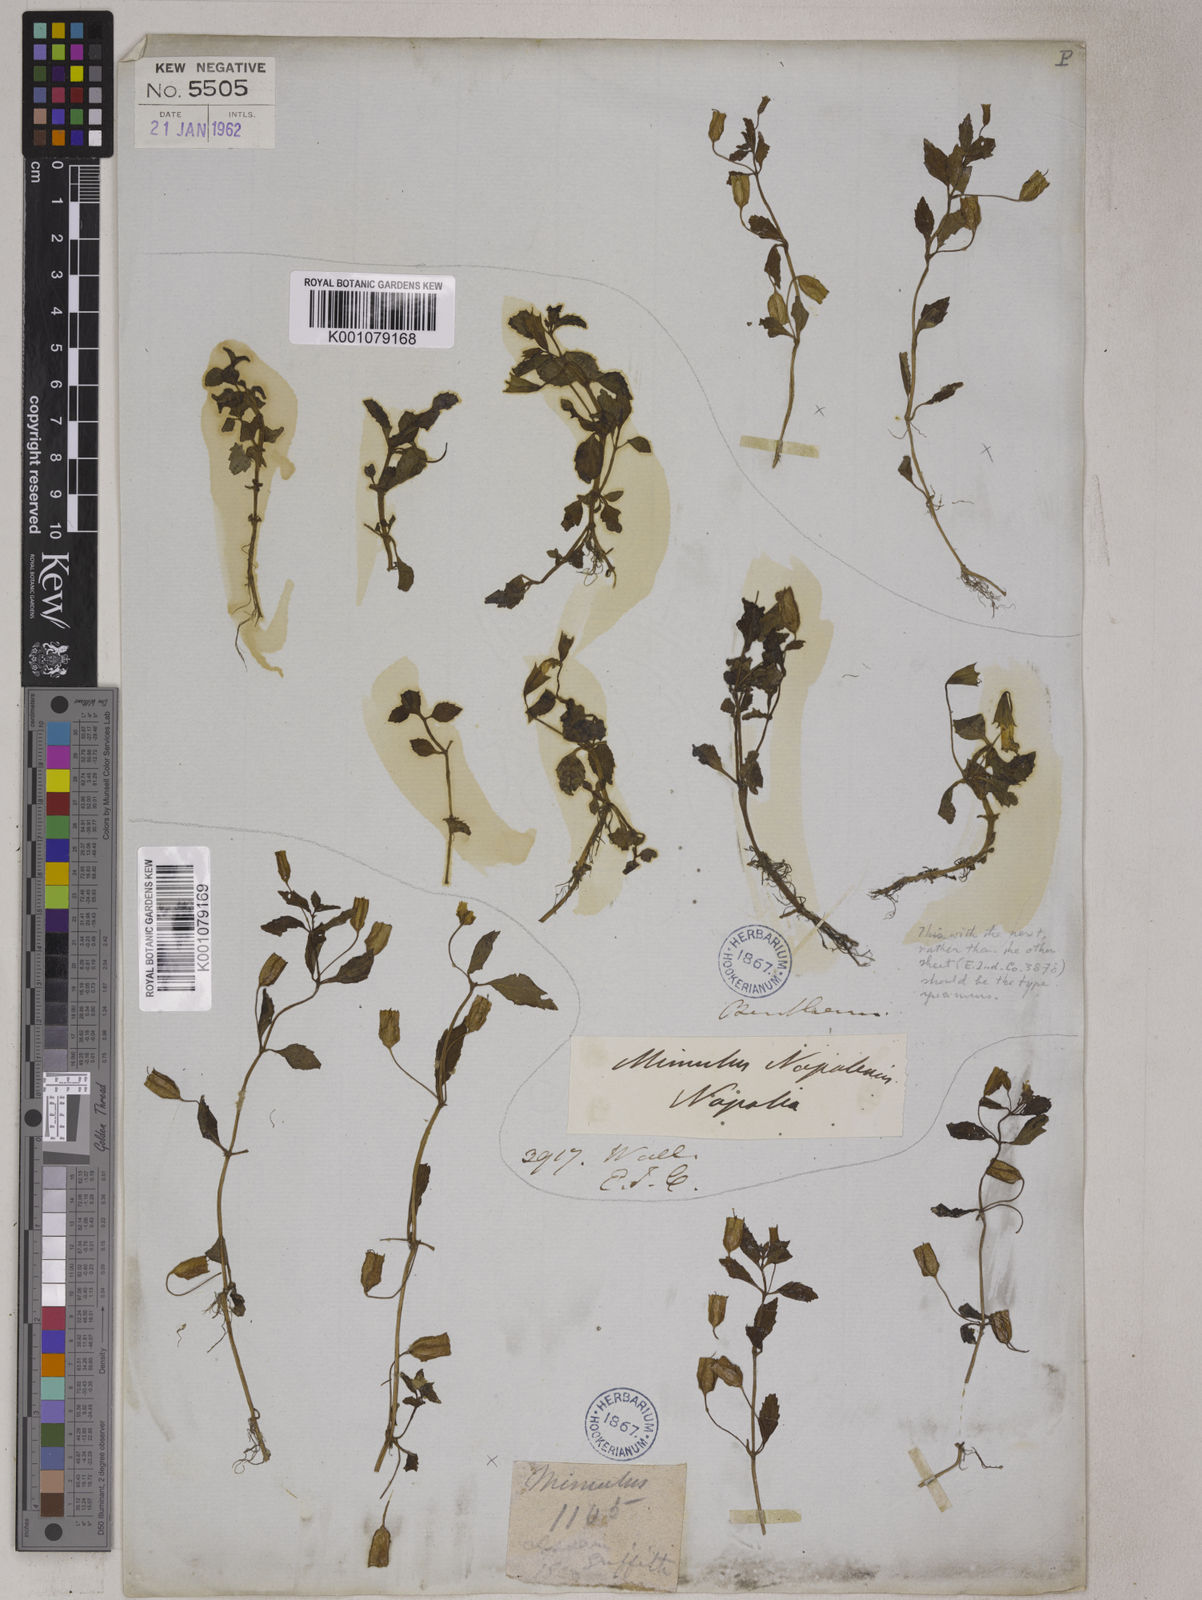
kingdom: Plantae
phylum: Tracheophyta
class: Magnoliopsida
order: Lamiales
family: Phrymaceae
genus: Mimulus
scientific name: Mimulus
